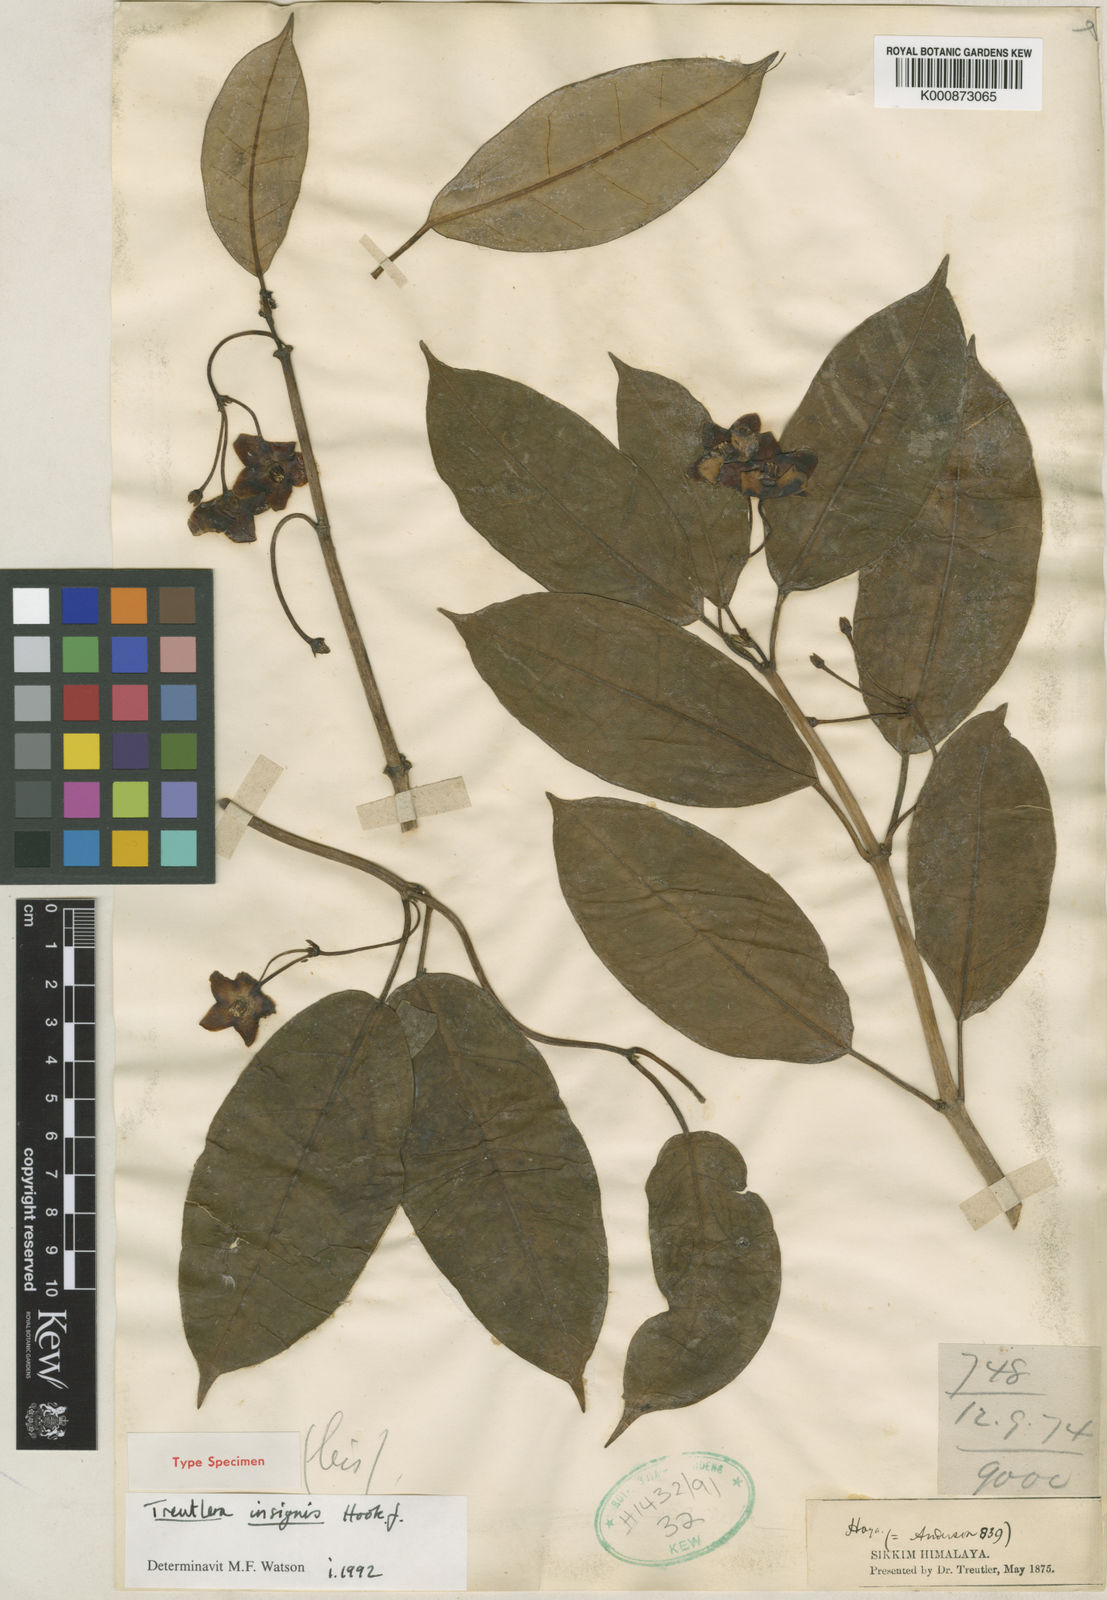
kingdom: Plantae
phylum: Tracheophyta
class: Magnoliopsida
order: Gentianales
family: Apocynaceae
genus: Treutlera
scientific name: Treutlera insignis
